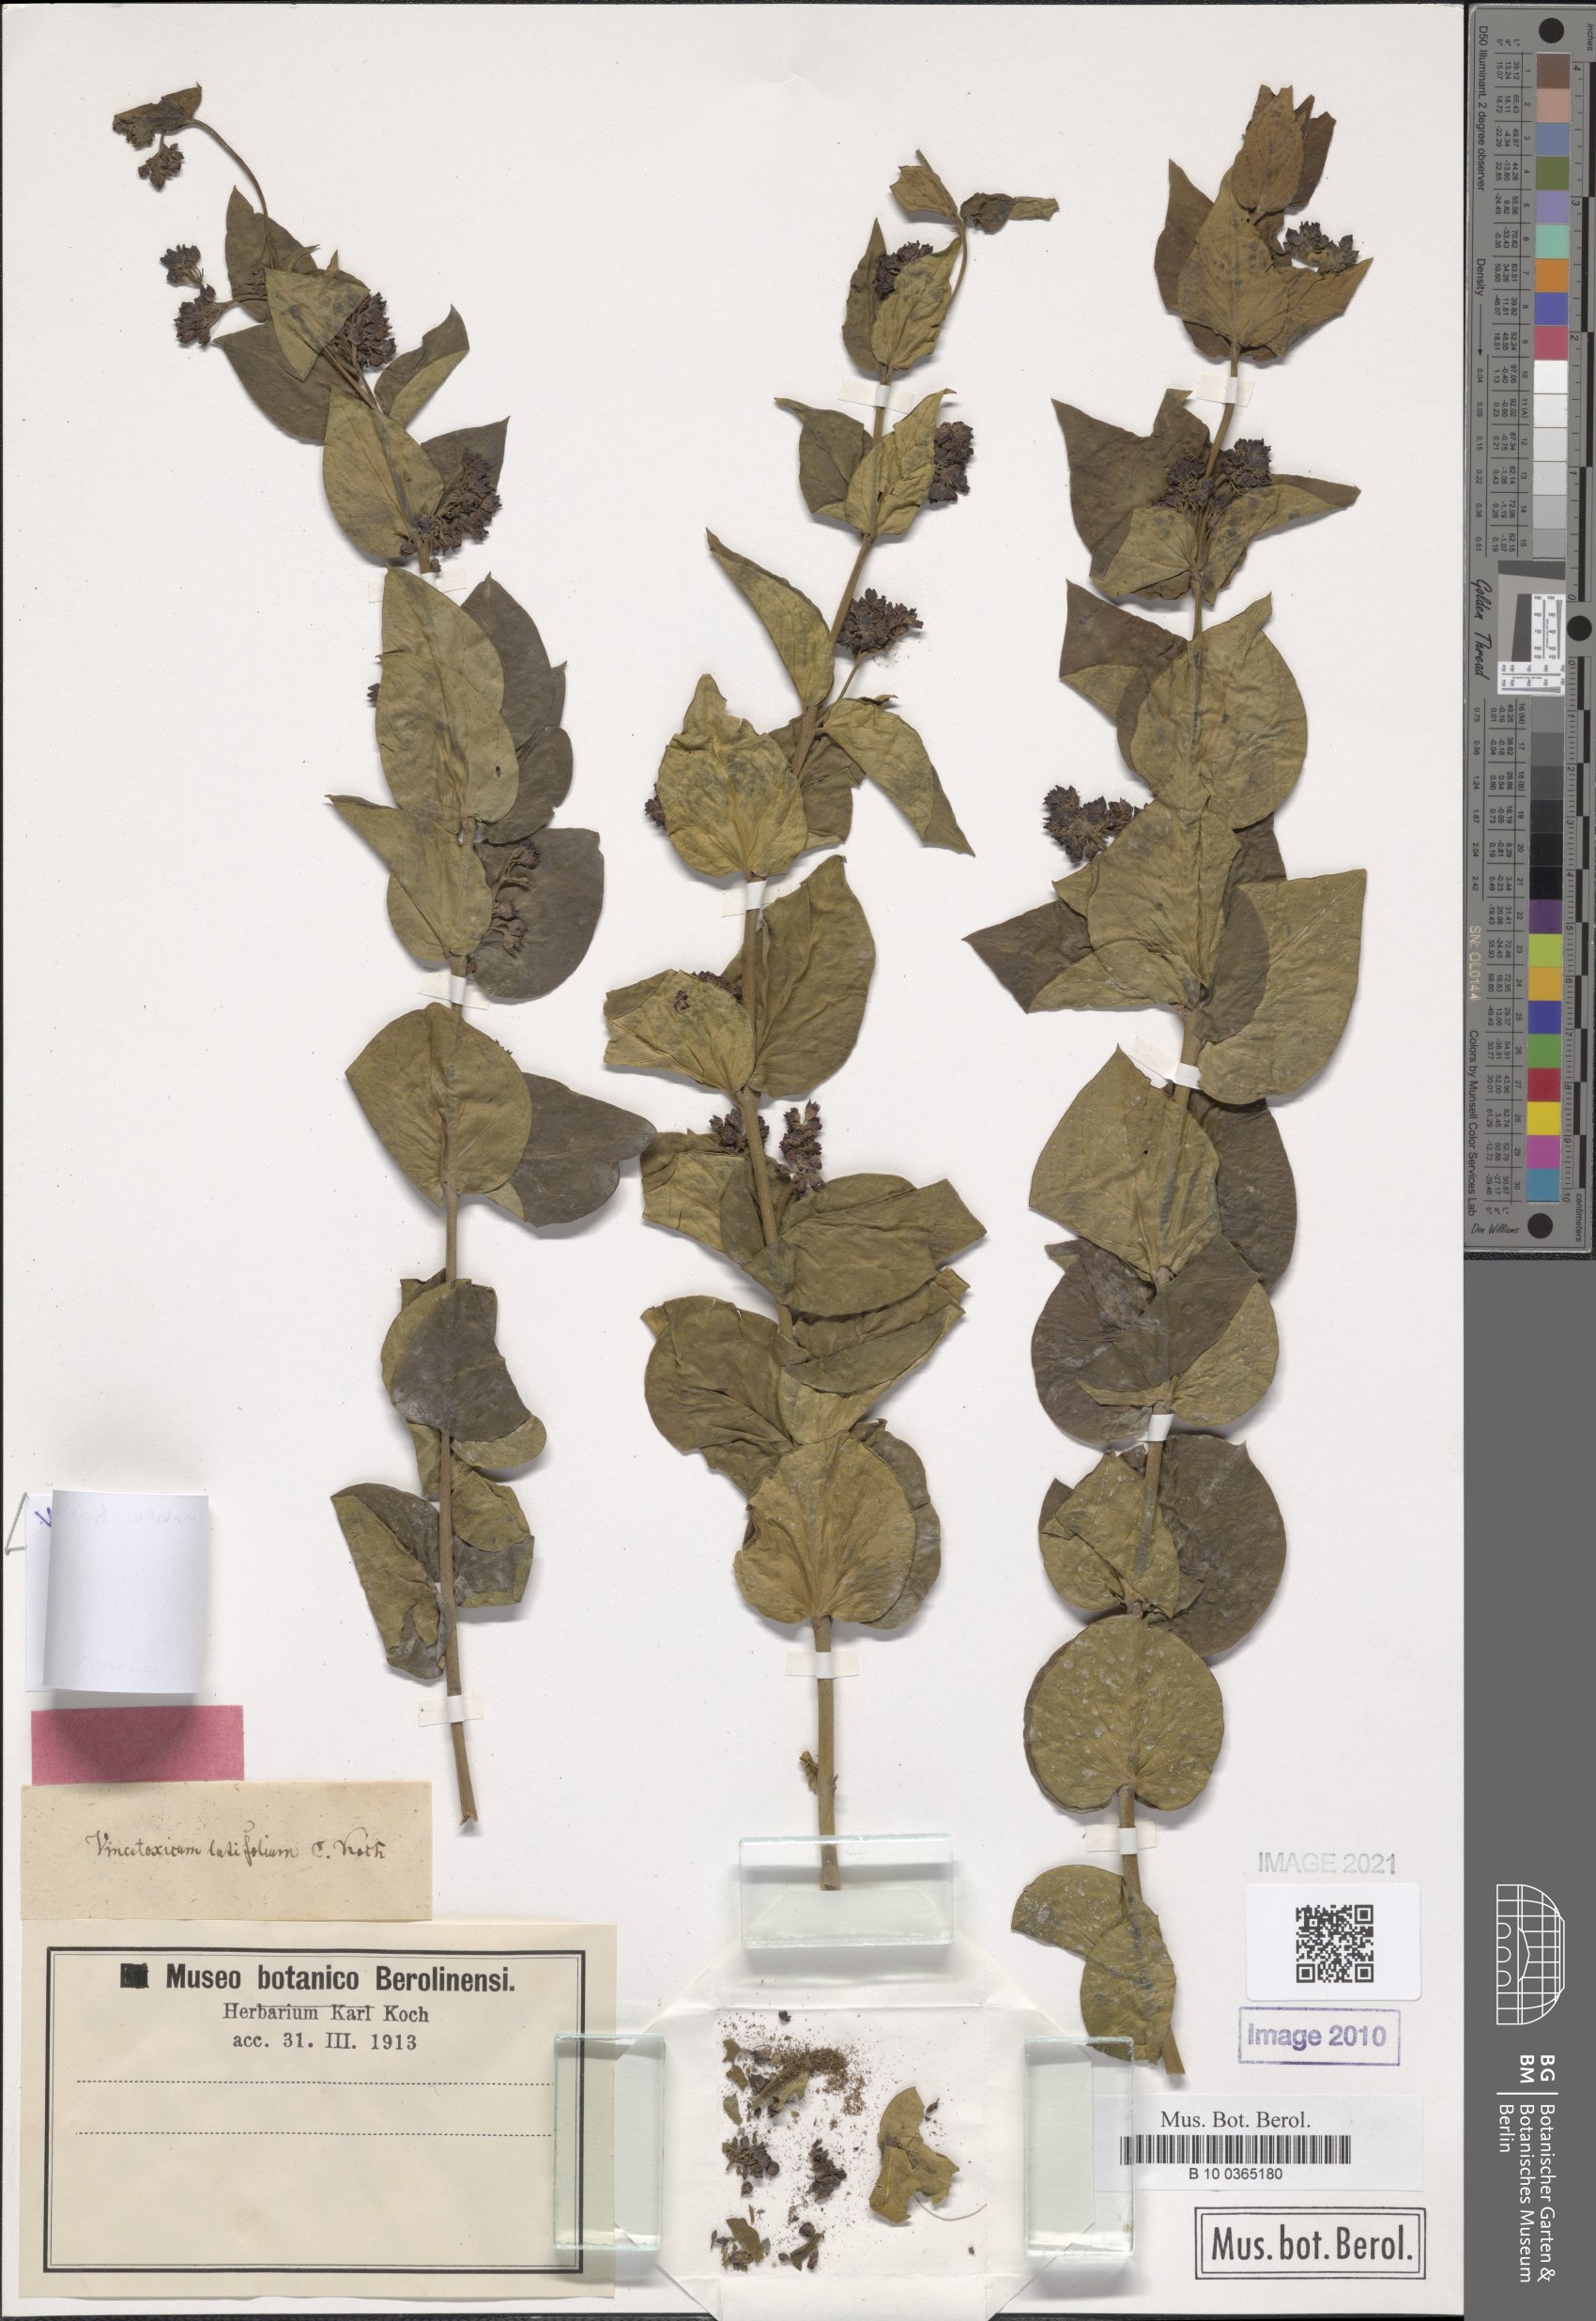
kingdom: Plantae
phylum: Tracheophyta
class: Magnoliopsida
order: Gentianales
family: Apocynaceae
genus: Vincetoxicum
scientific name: Vincetoxicum funebre
